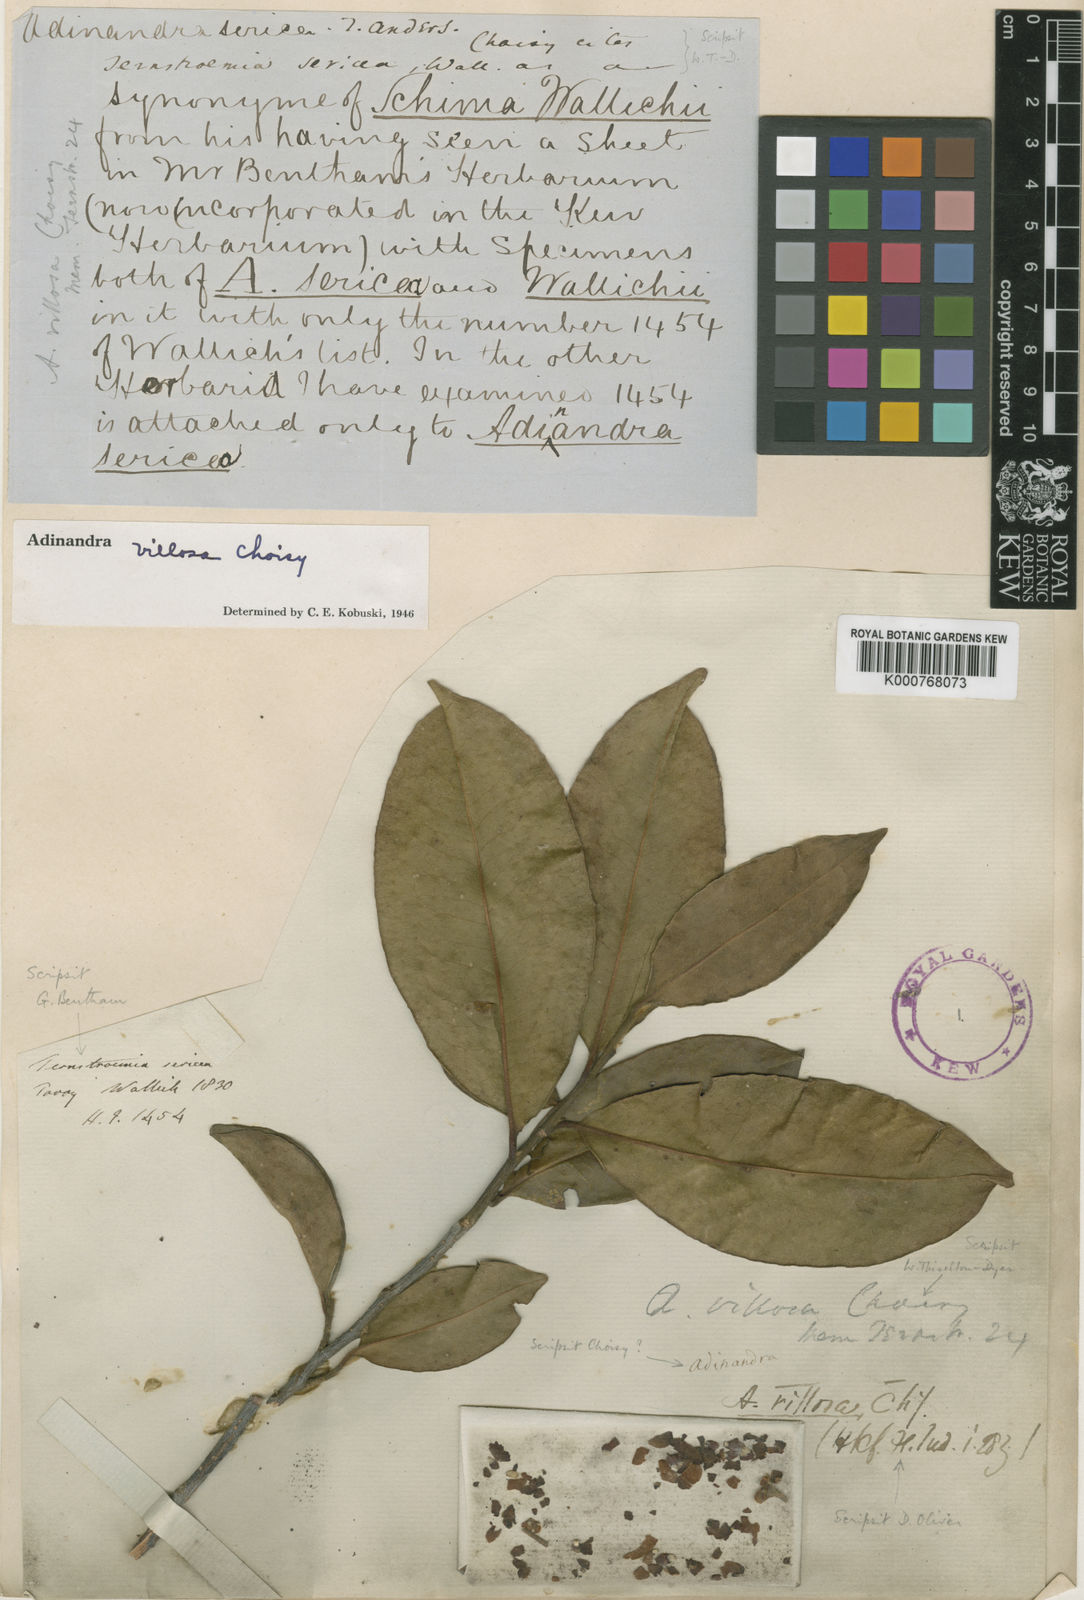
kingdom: Plantae
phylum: Tracheophyta
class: Magnoliopsida
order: Ericales
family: Pentaphylacaceae
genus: Adinandra
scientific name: Adinandra villosa
